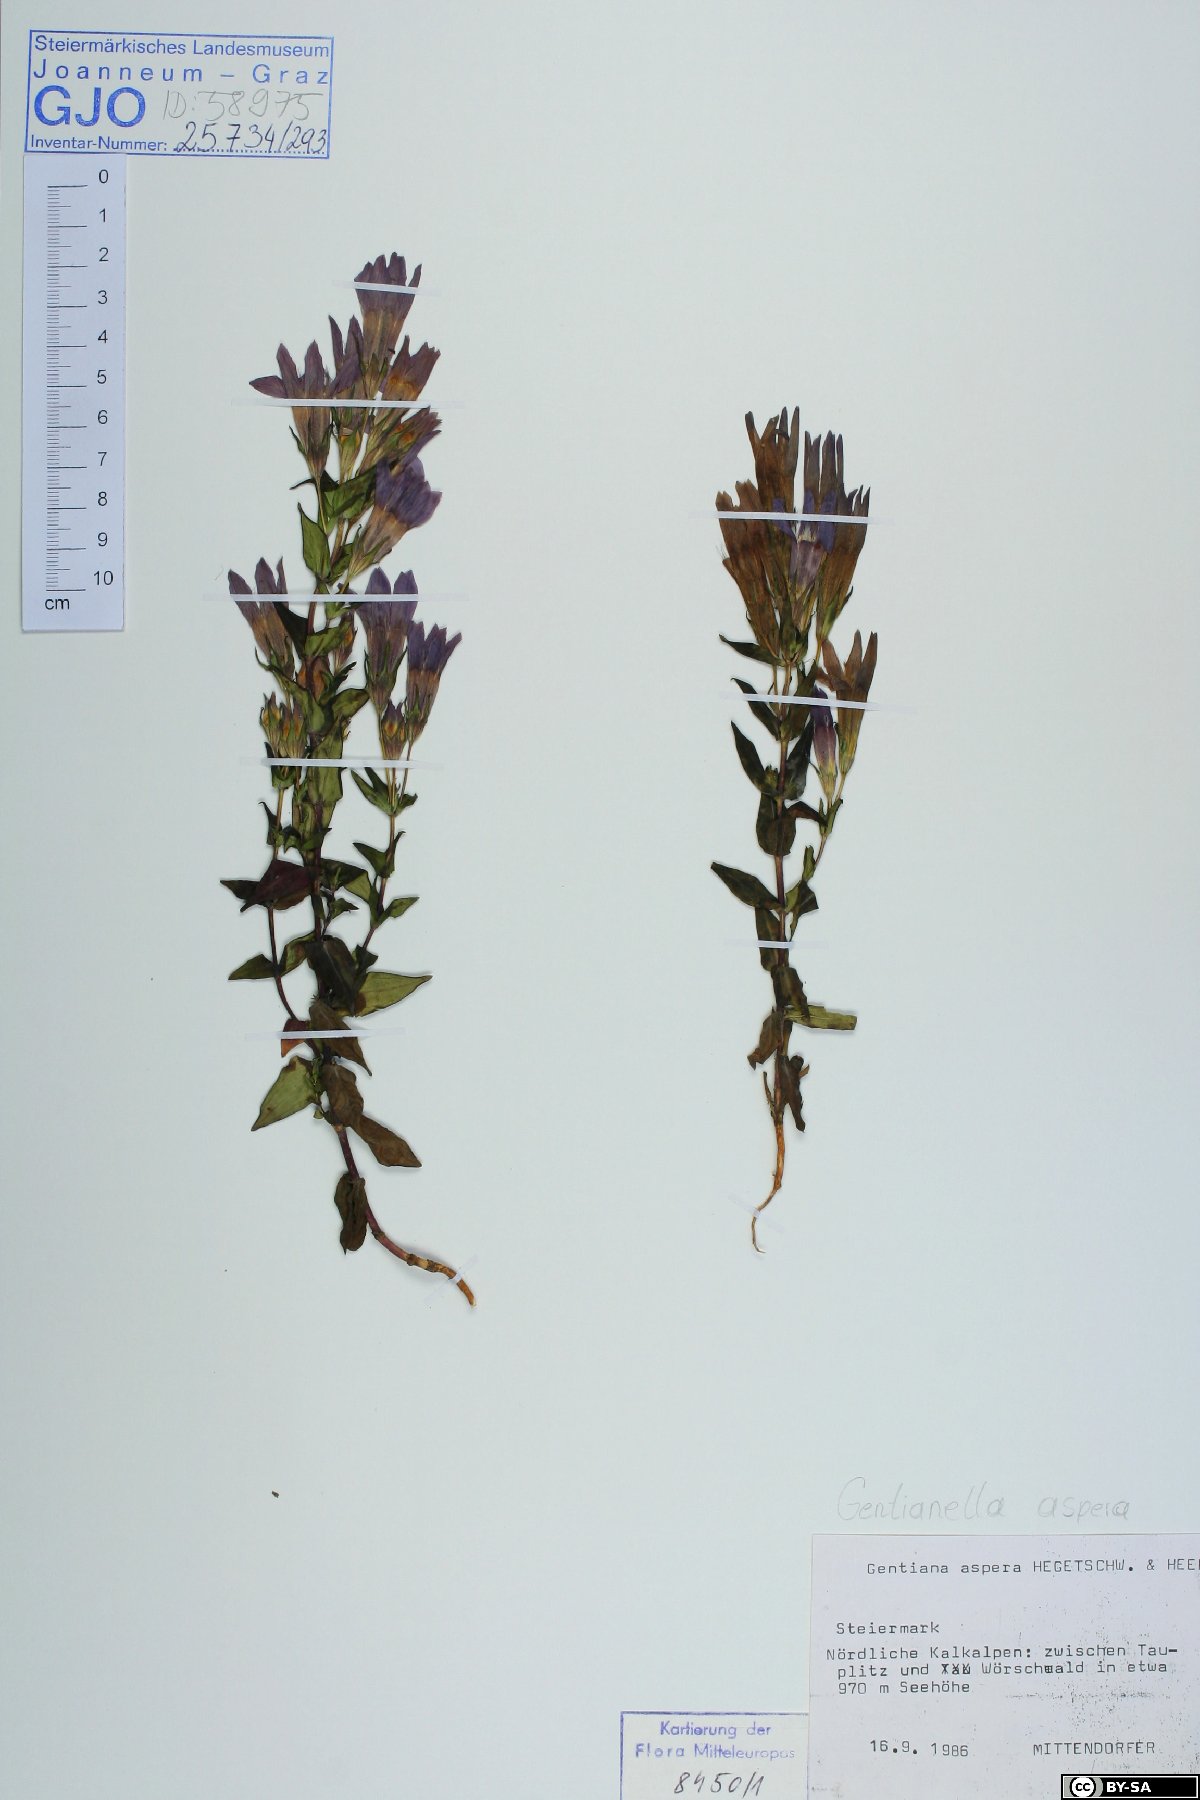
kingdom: Plantae
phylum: Tracheophyta
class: Magnoliopsida
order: Gentianales
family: Gentianaceae
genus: Gentianella
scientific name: Gentianella obtusifolia
